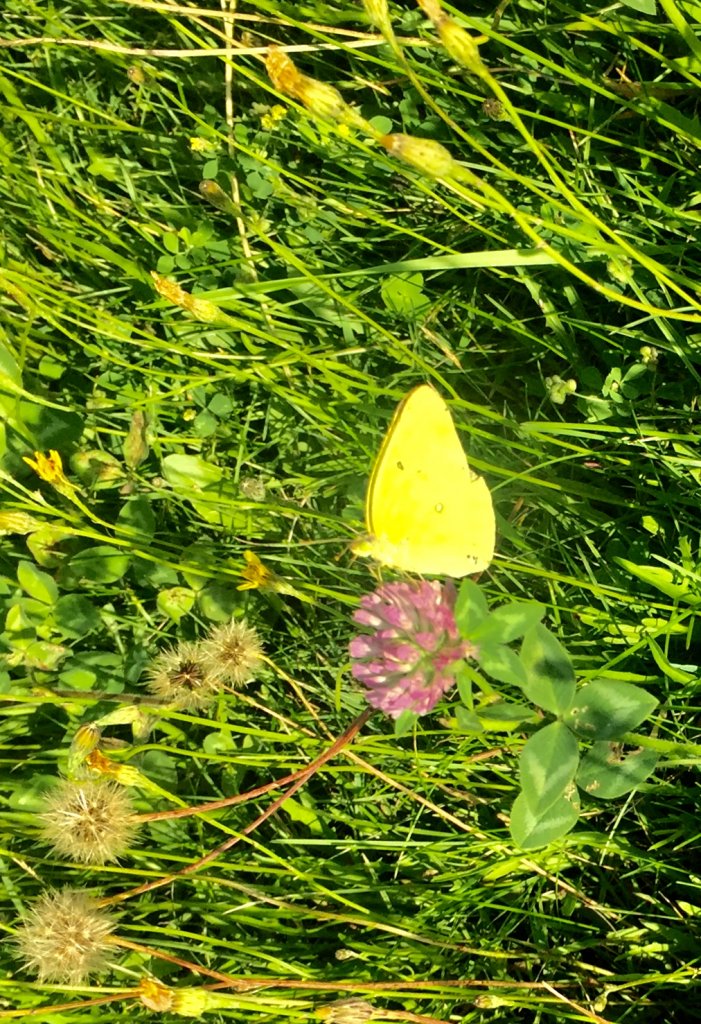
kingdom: Animalia
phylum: Arthropoda
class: Insecta
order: Lepidoptera
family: Pieridae
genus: Colias
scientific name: Colias philodice
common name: Clouded Sulphur
